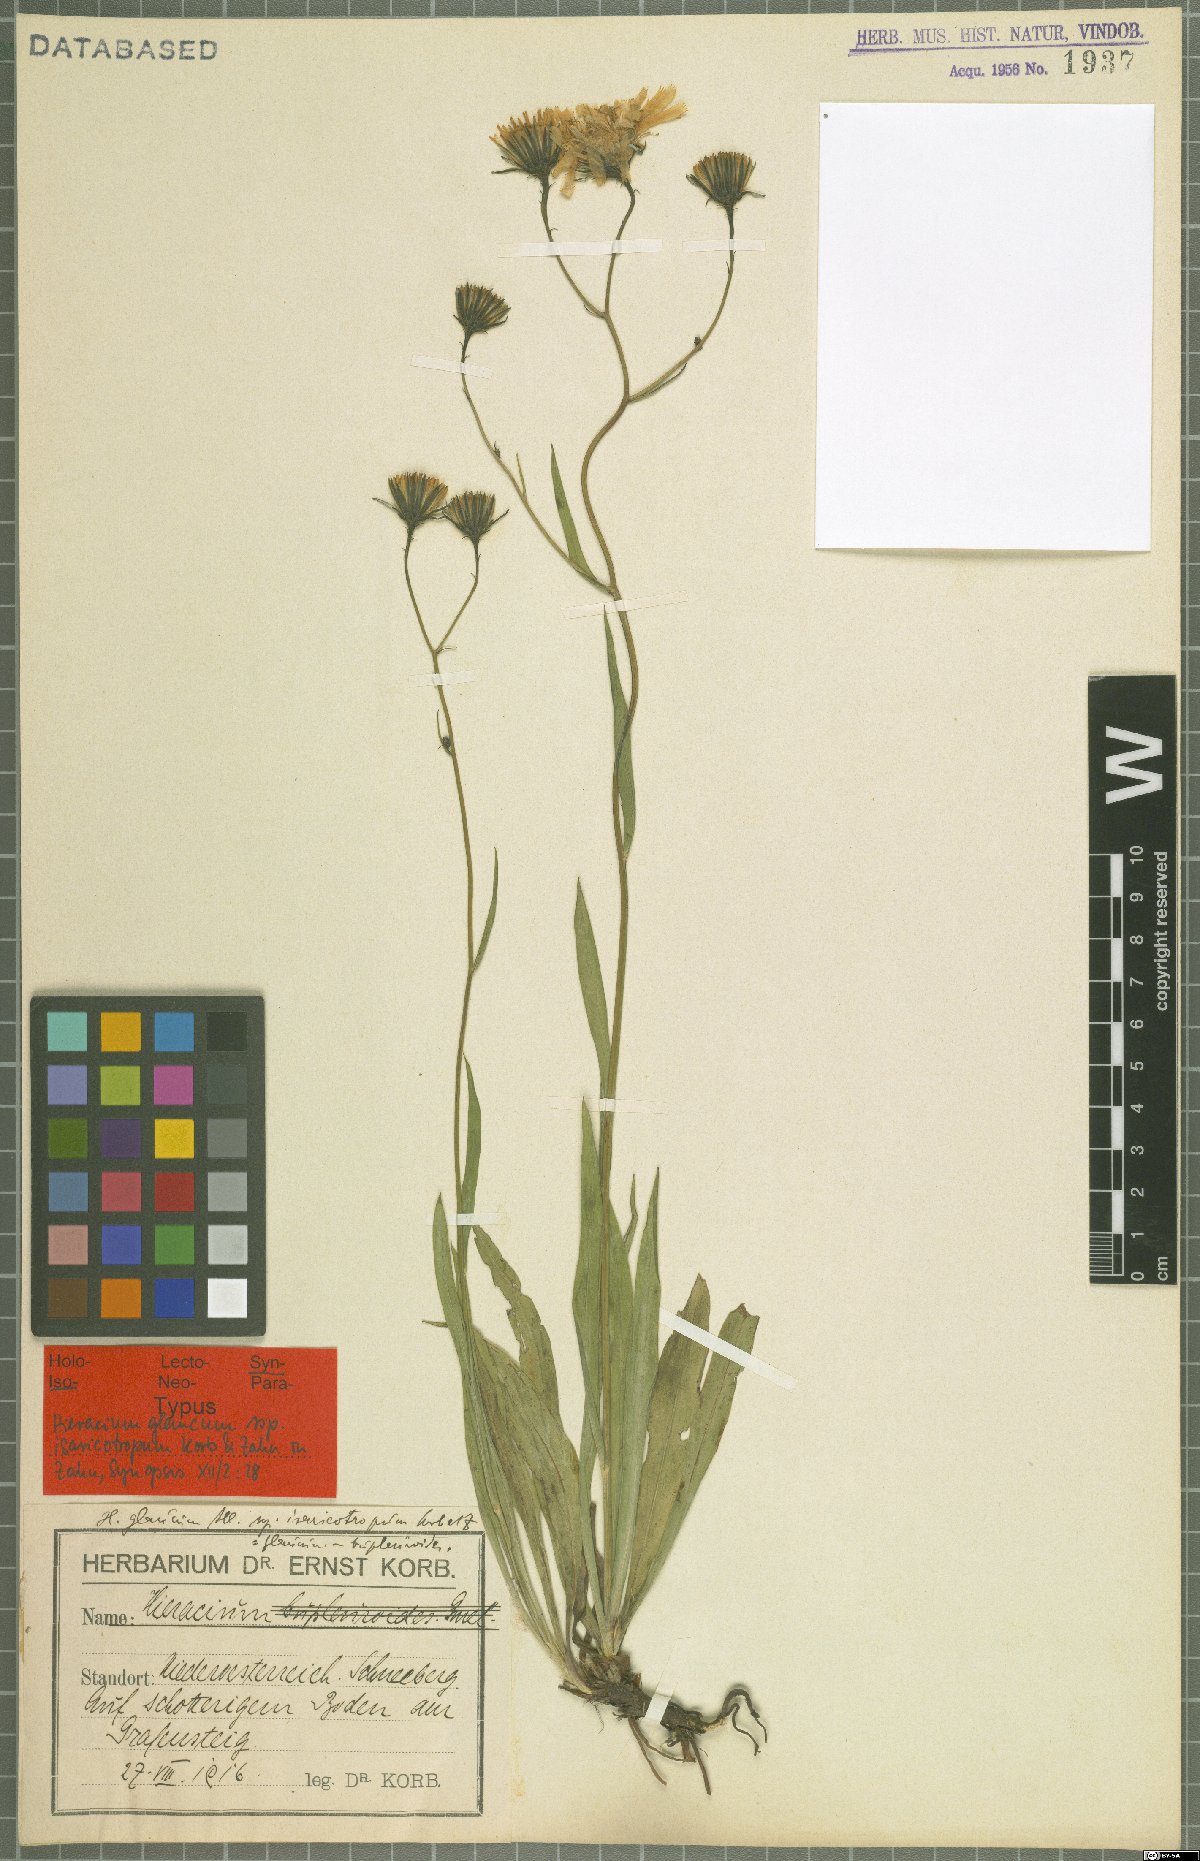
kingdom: Plantae
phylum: Tracheophyta
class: Magnoliopsida
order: Asterales
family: Asteraceae
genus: Hieracium
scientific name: Hieracium glaucum
